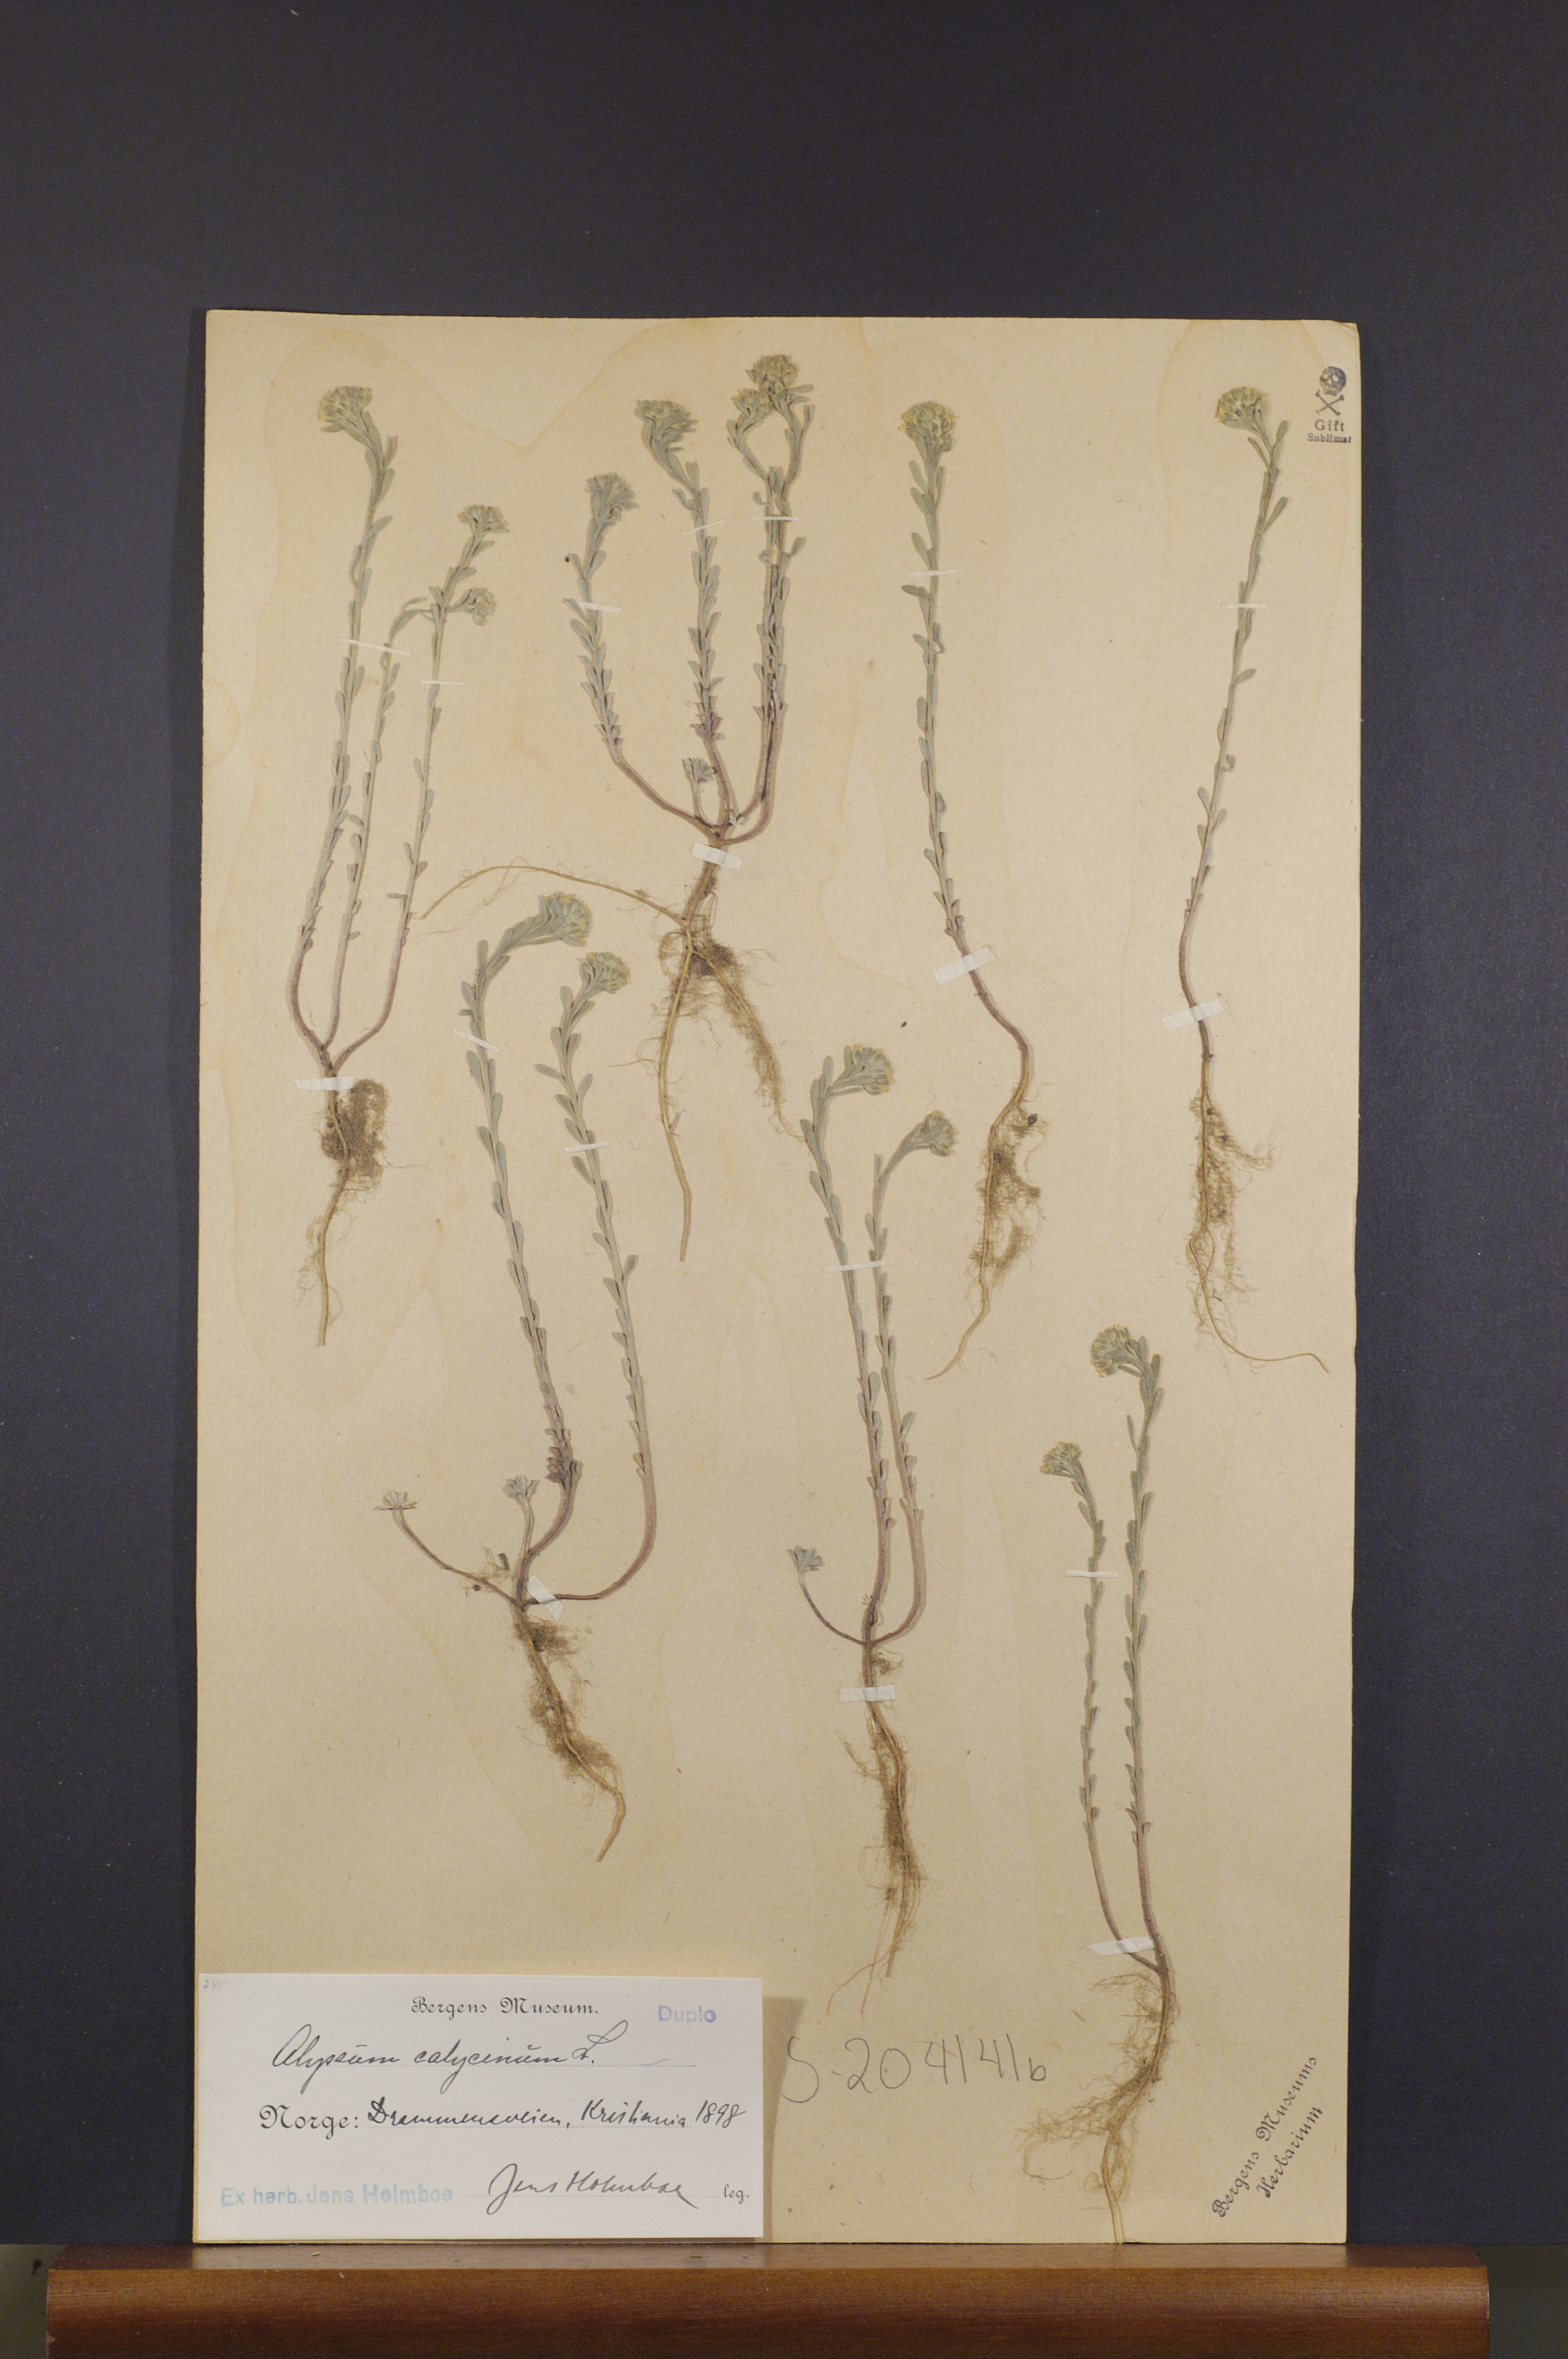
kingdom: Plantae
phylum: Tracheophyta
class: Magnoliopsida
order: Brassicales
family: Brassicaceae
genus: Alyssum
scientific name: Alyssum alyssoides
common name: Small alison
